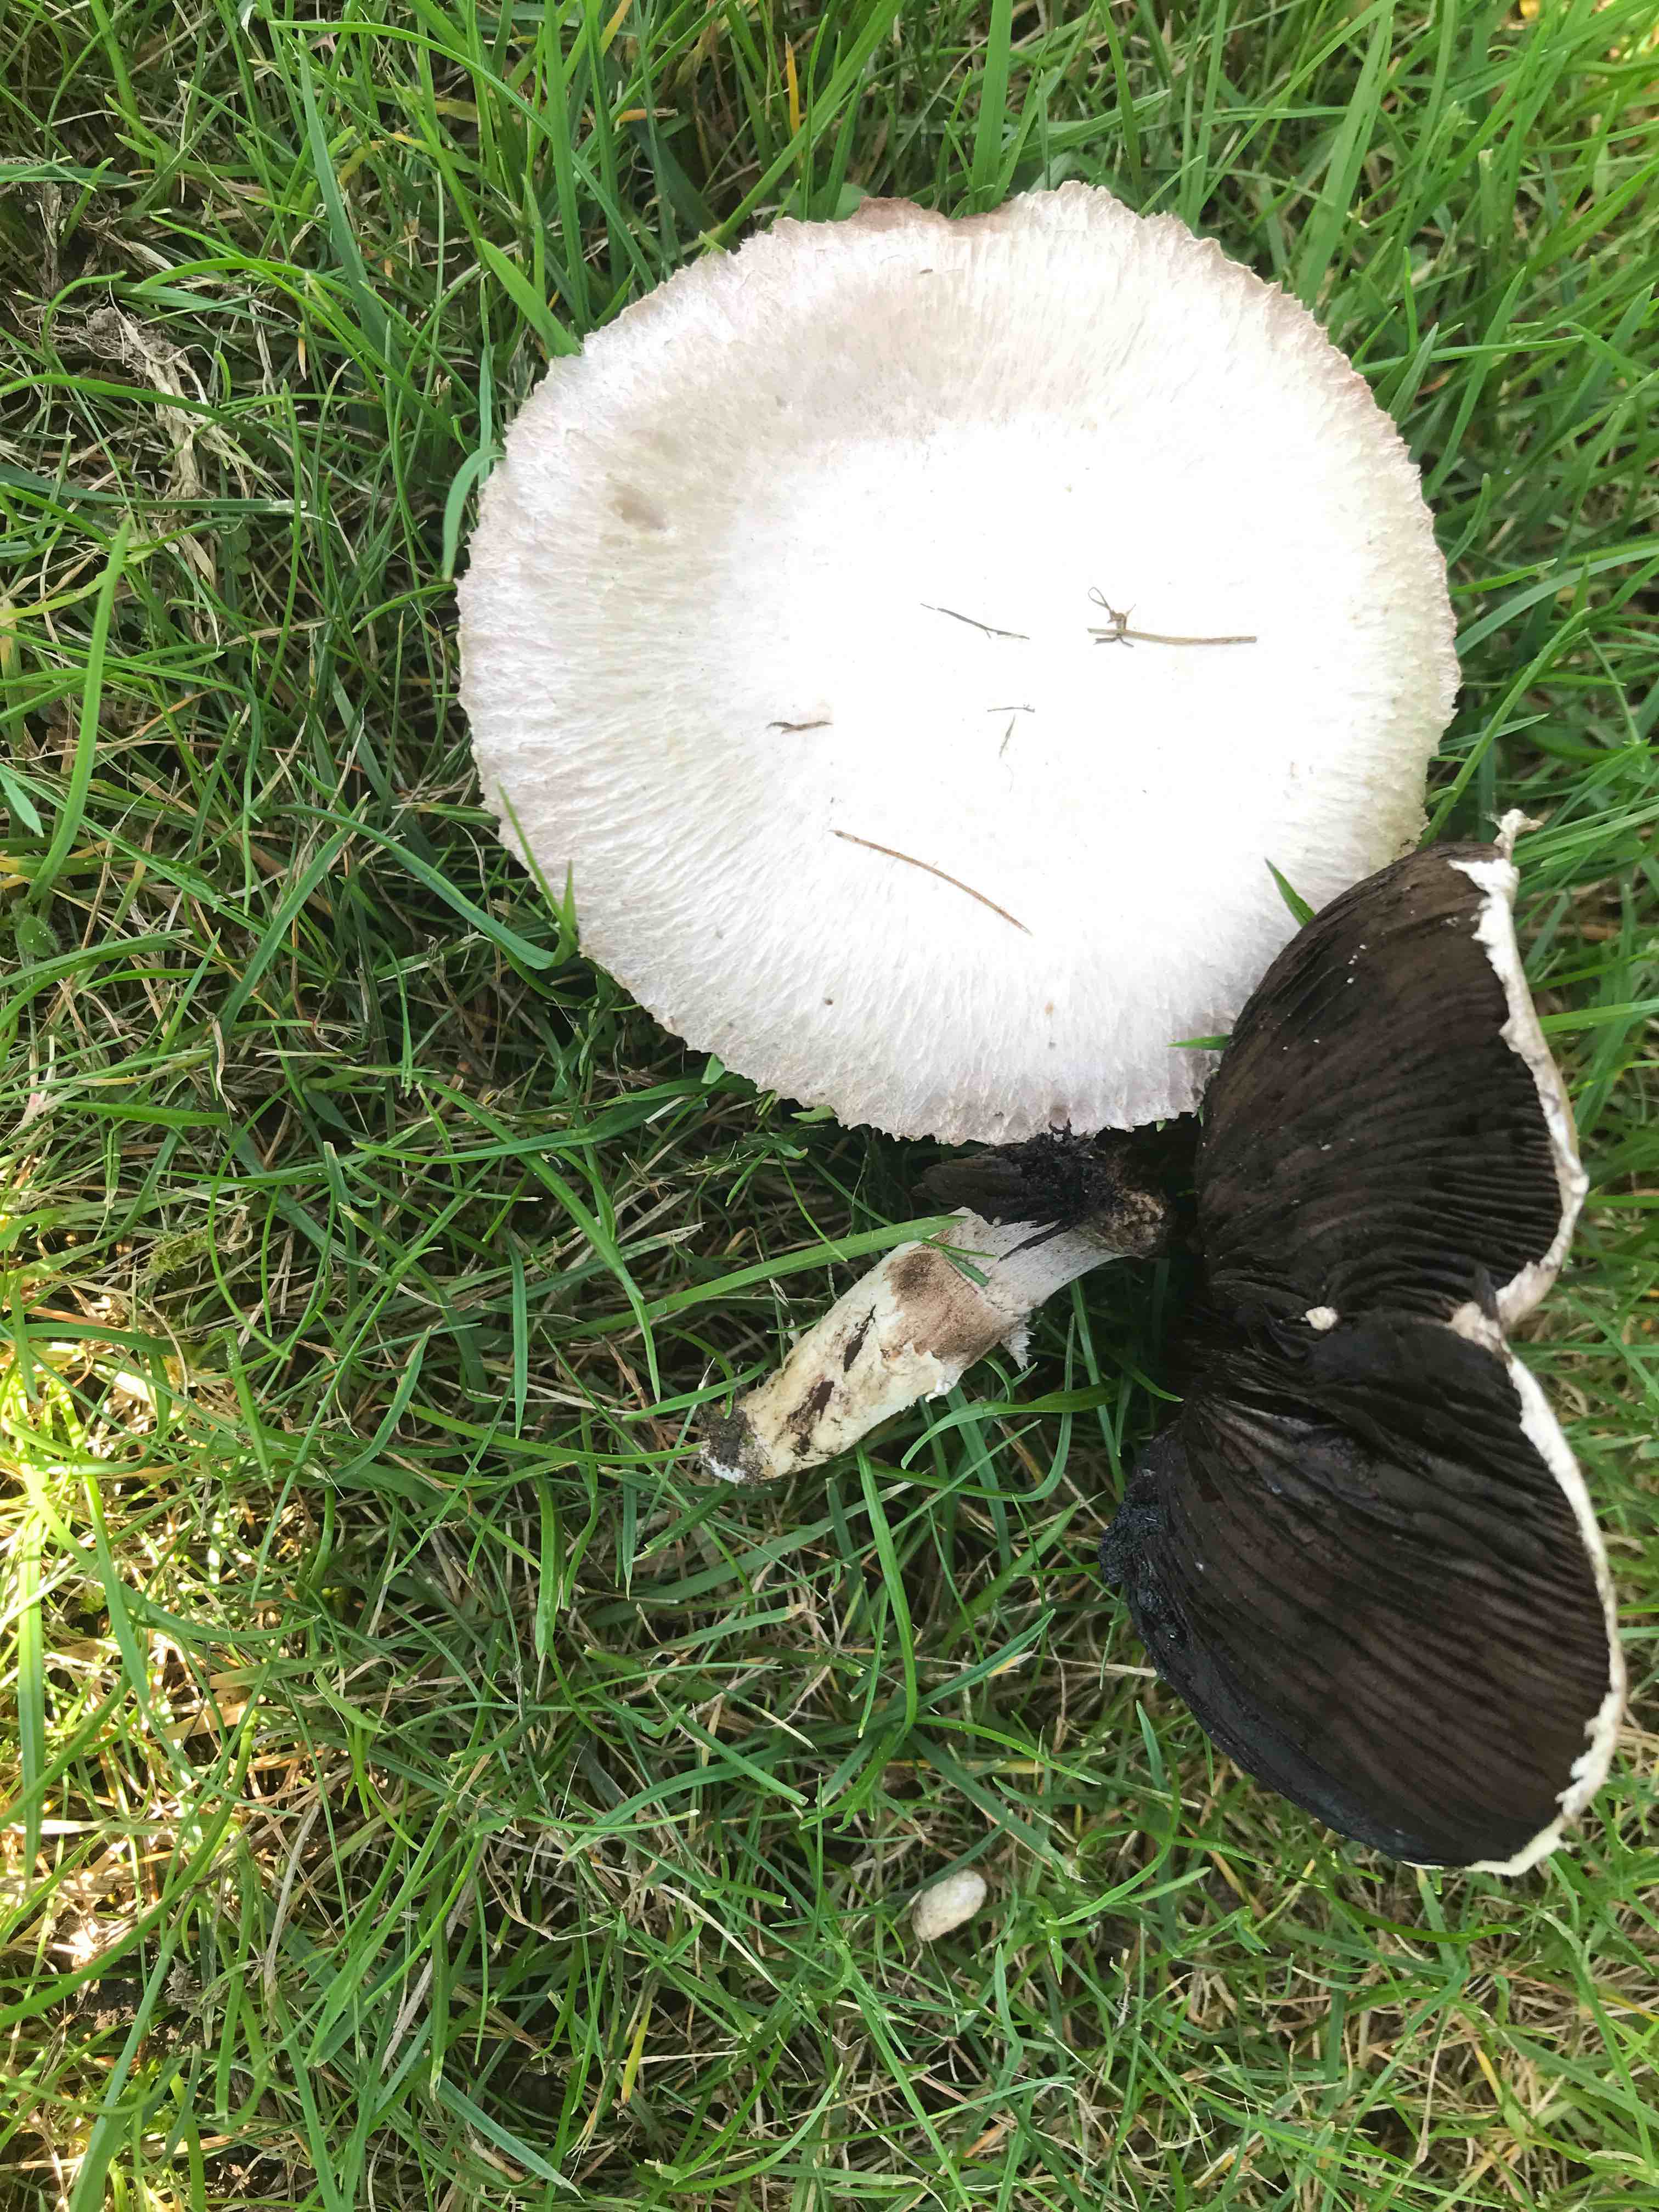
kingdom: Fungi
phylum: Basidiomycota
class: Agaricomycetes
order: Agaricales
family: Agaricaceae
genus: Agaricus
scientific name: Agaricus campestris
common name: mark-champignon
